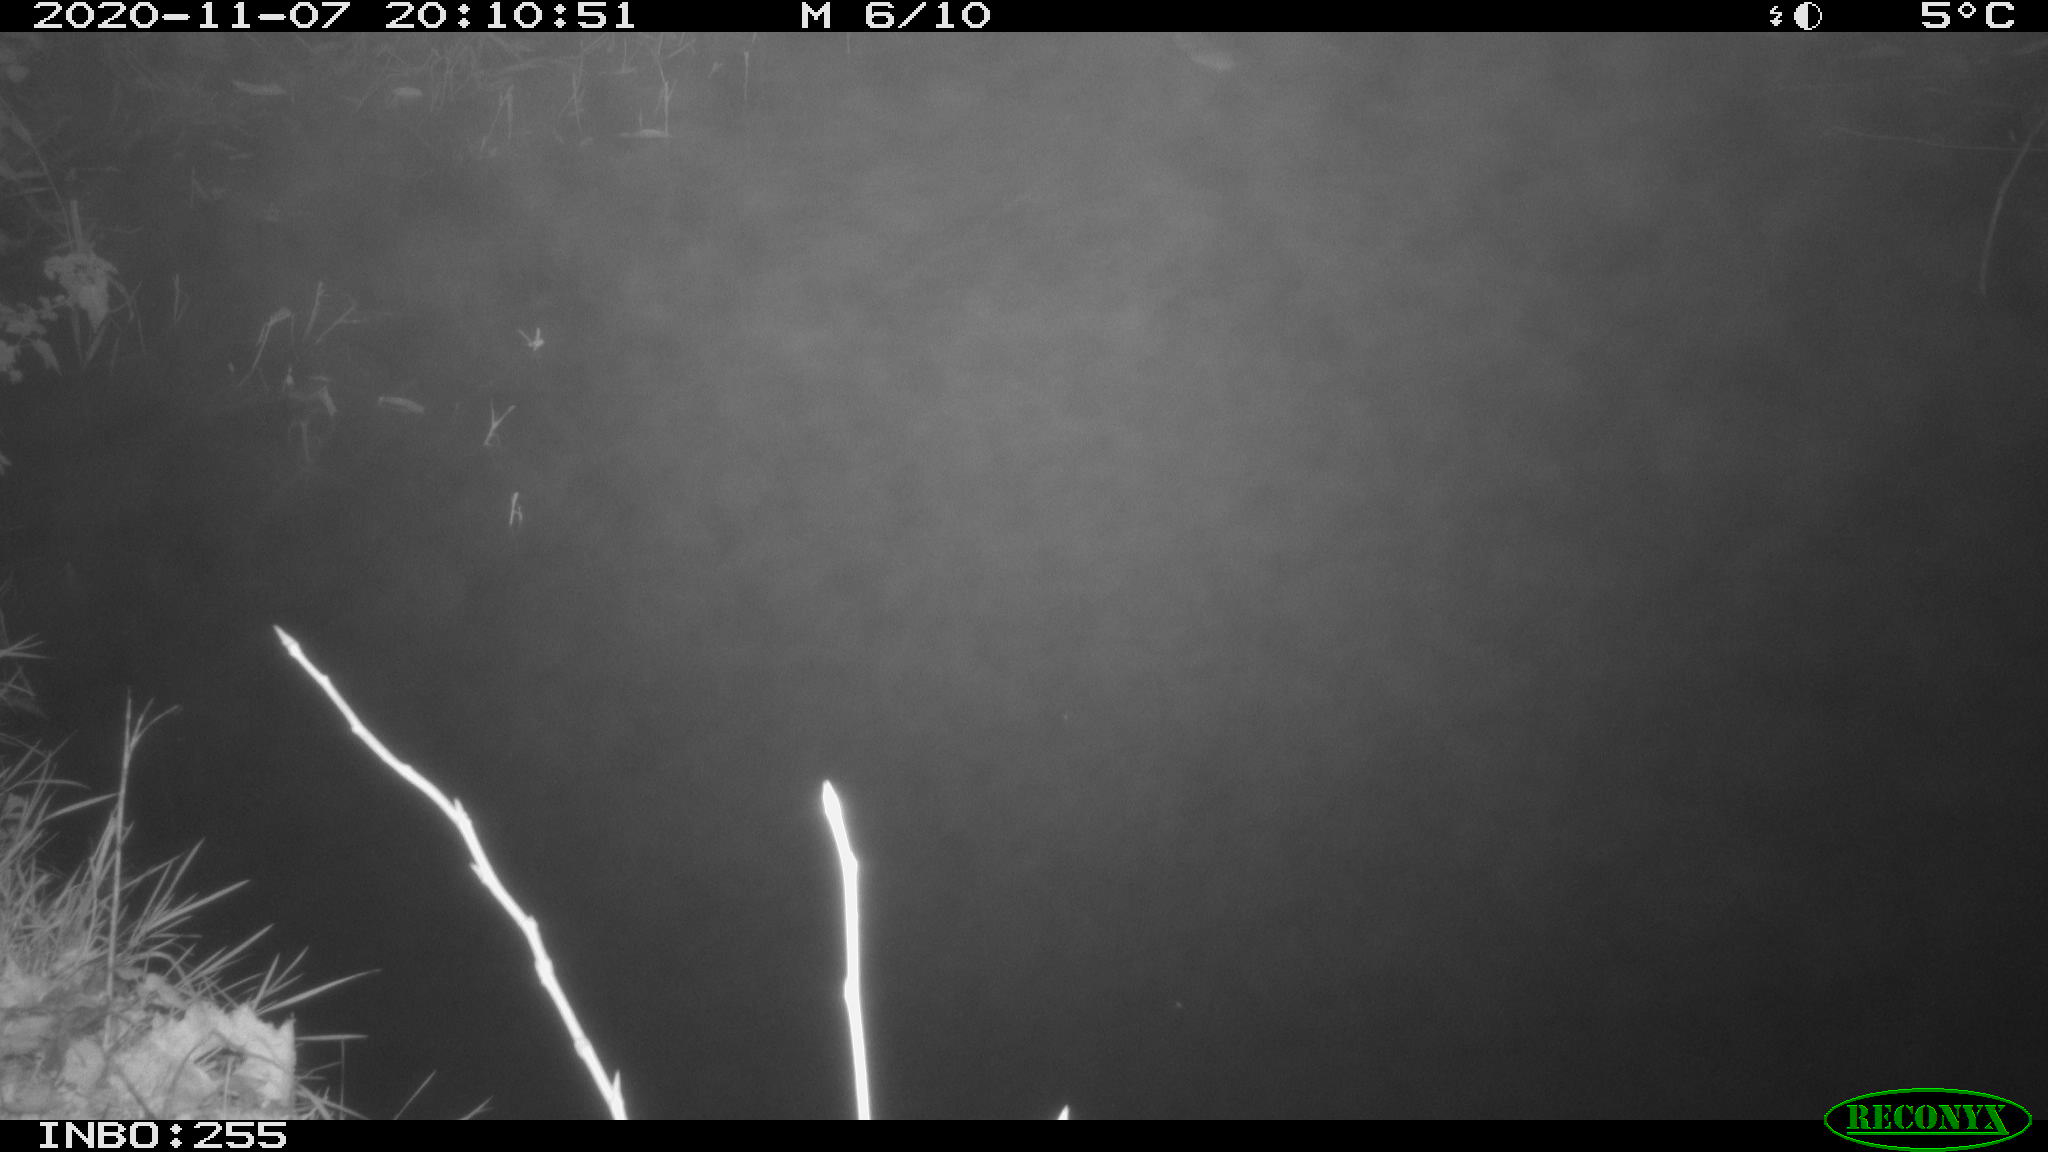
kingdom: Animalia
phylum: Chordata
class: Mammalia
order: Rodentia
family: Muridae
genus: Rattus
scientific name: Rattus norvegicus
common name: Brown rat
